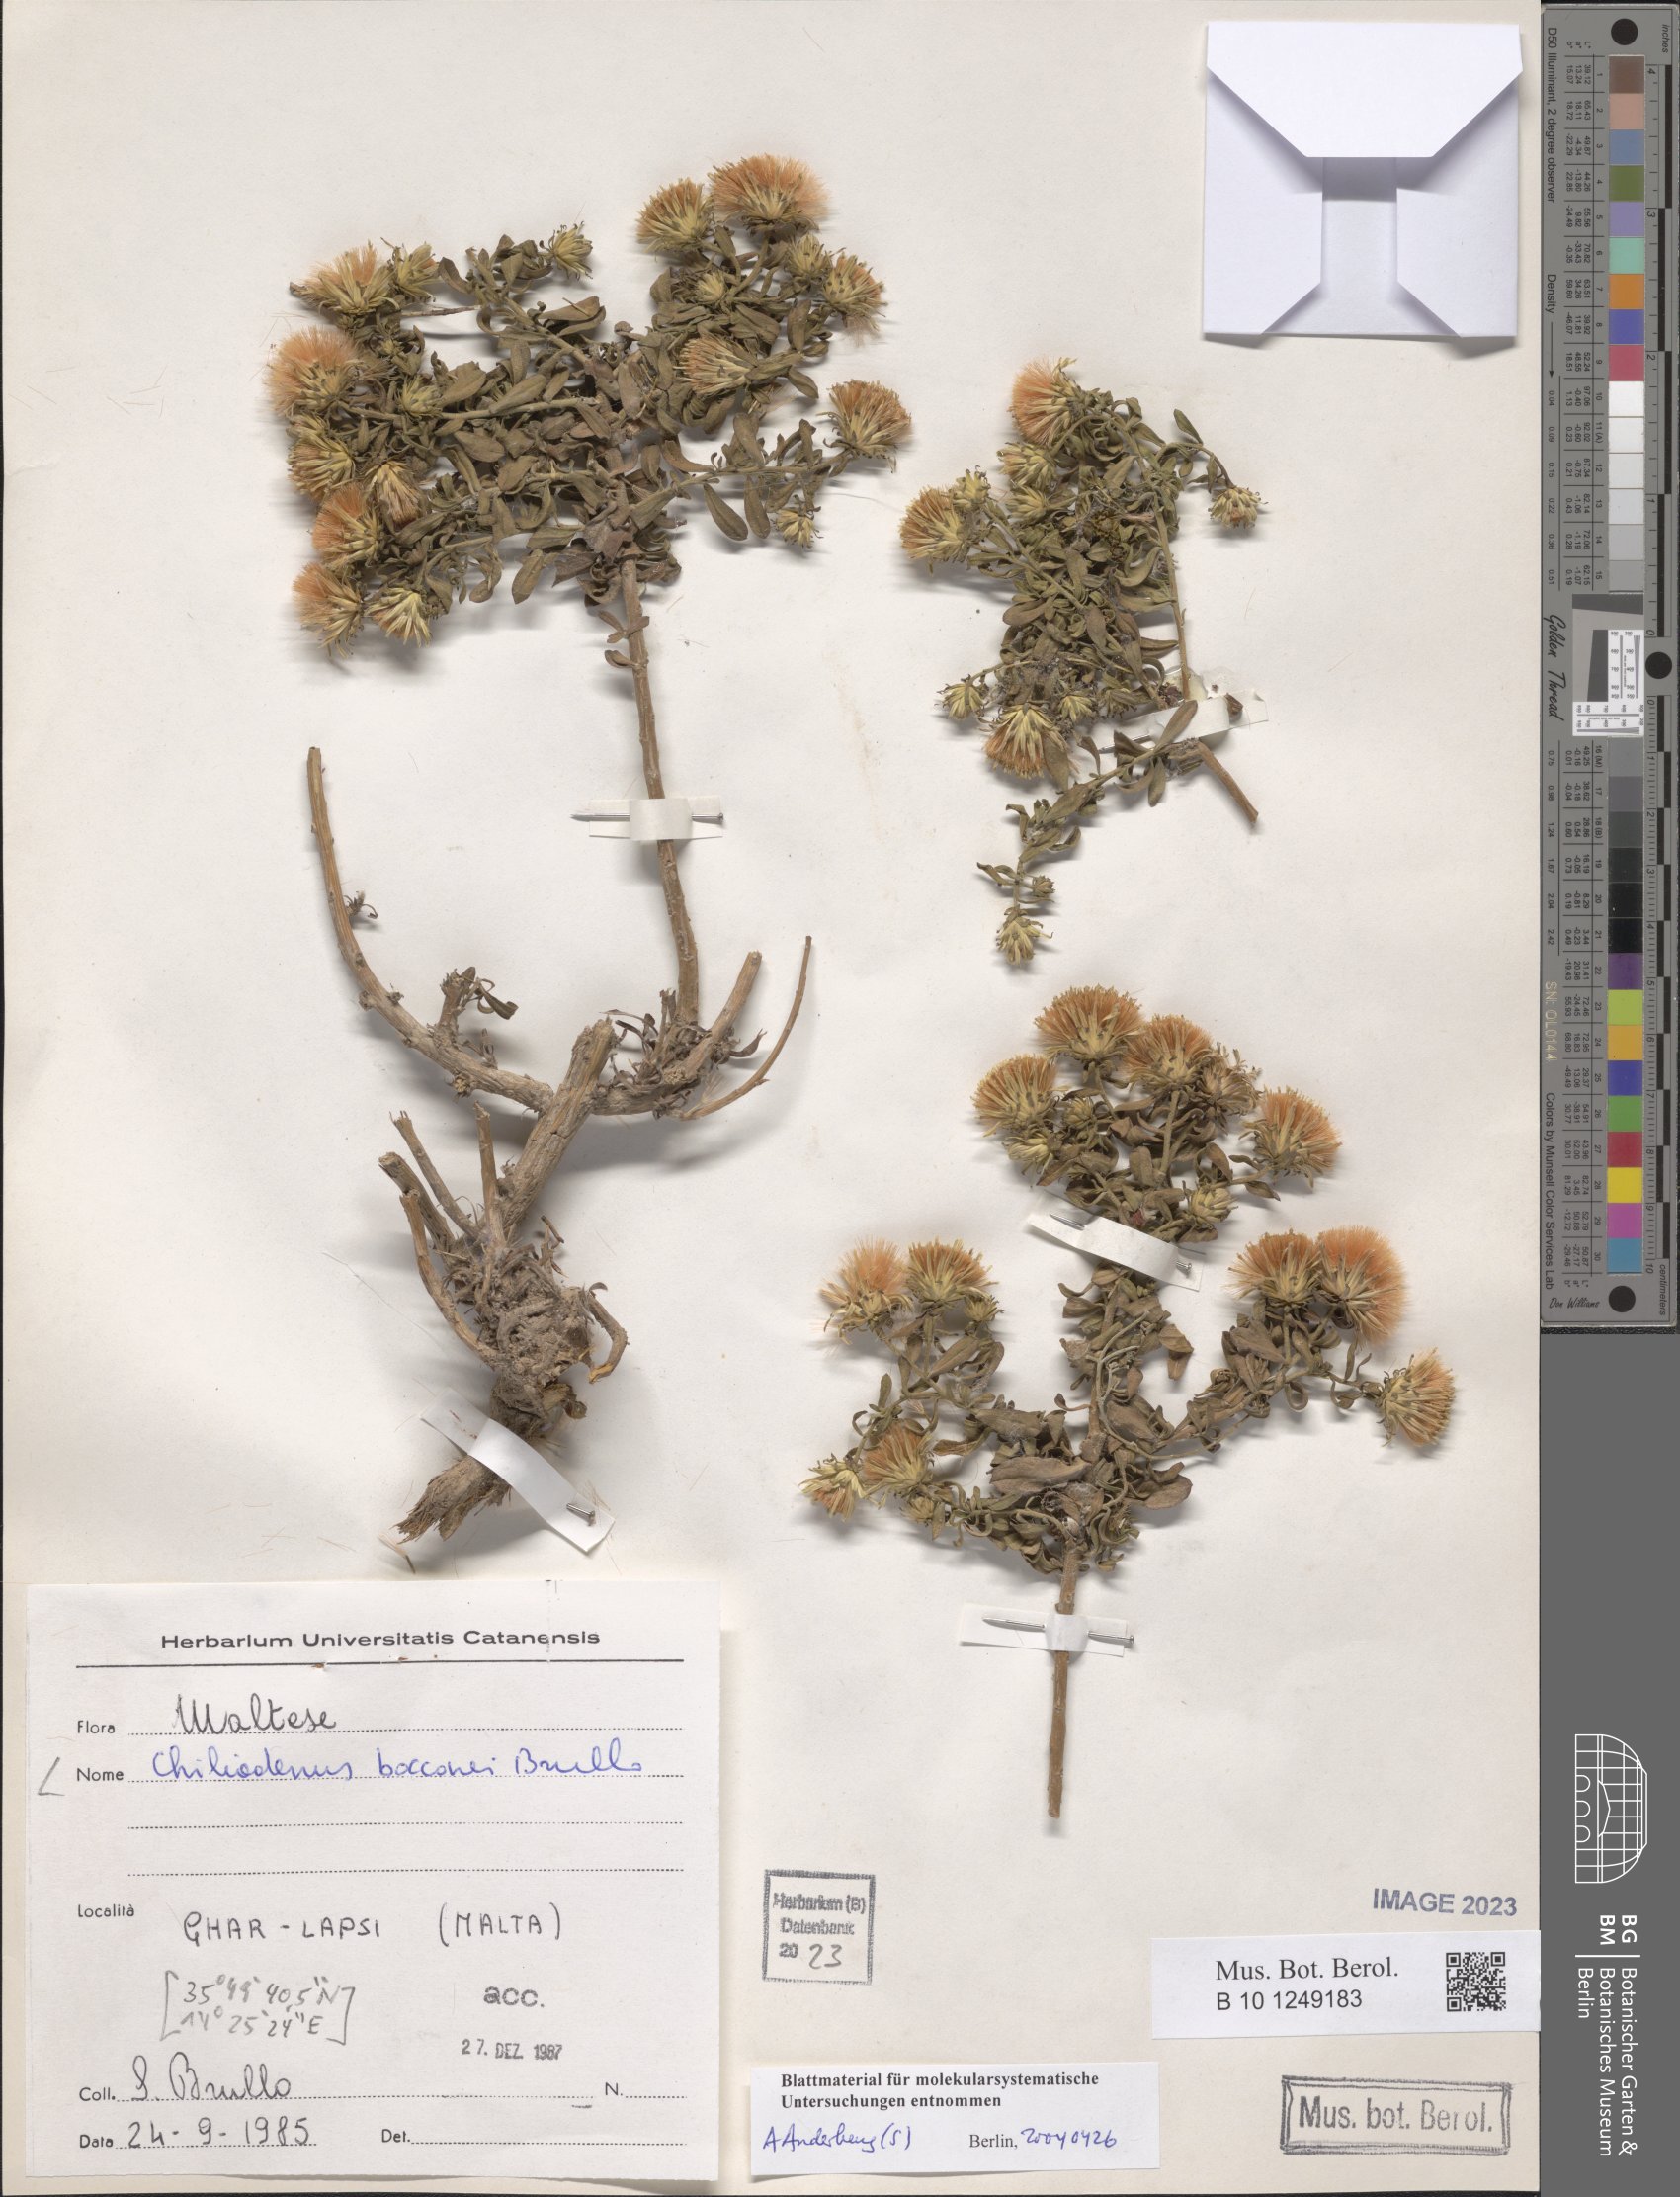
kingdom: Plantae
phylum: Tracheophyta
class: Magnoliopsida
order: Asterales
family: Asteraceae
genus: Chiliadenus
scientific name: Chiliadenus bocconei
